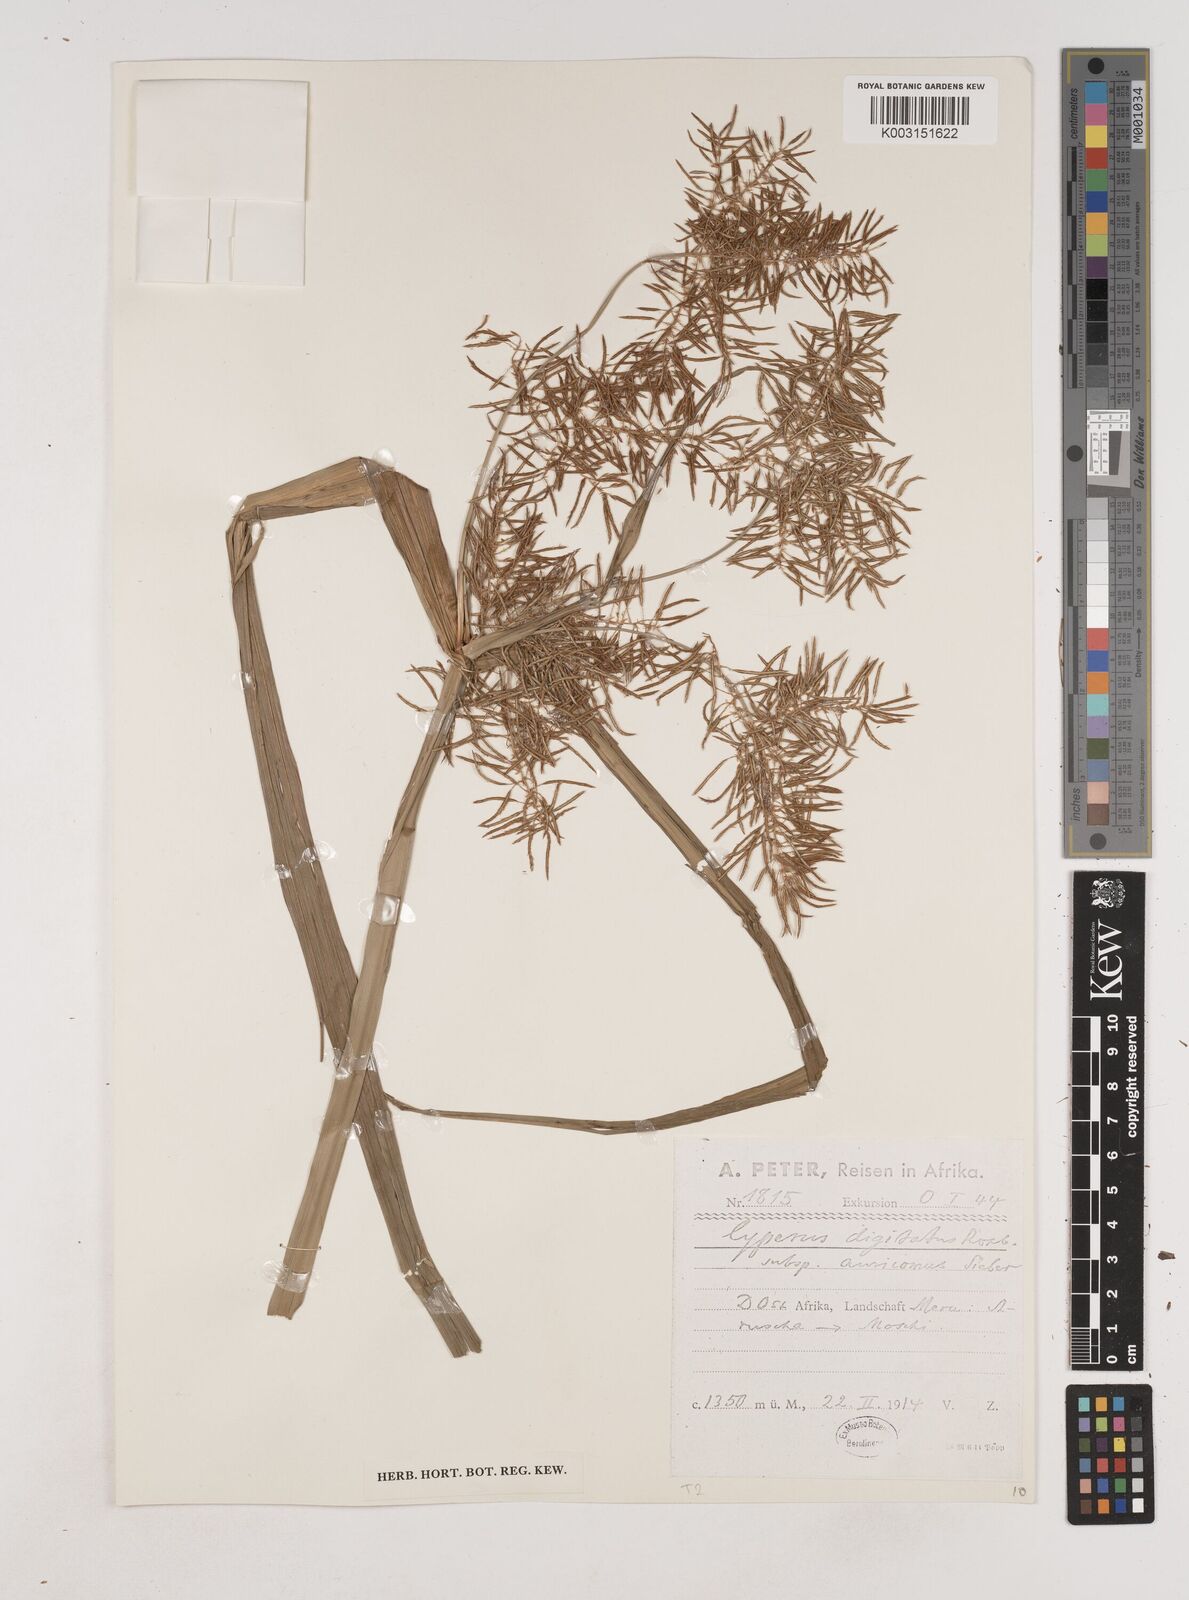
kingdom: Plantae
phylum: Tracheophyta
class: Liliopsida
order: Poales
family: Cyperaceae
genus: Cyperus
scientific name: Cyperus digitatus
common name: Finger flatsedge
